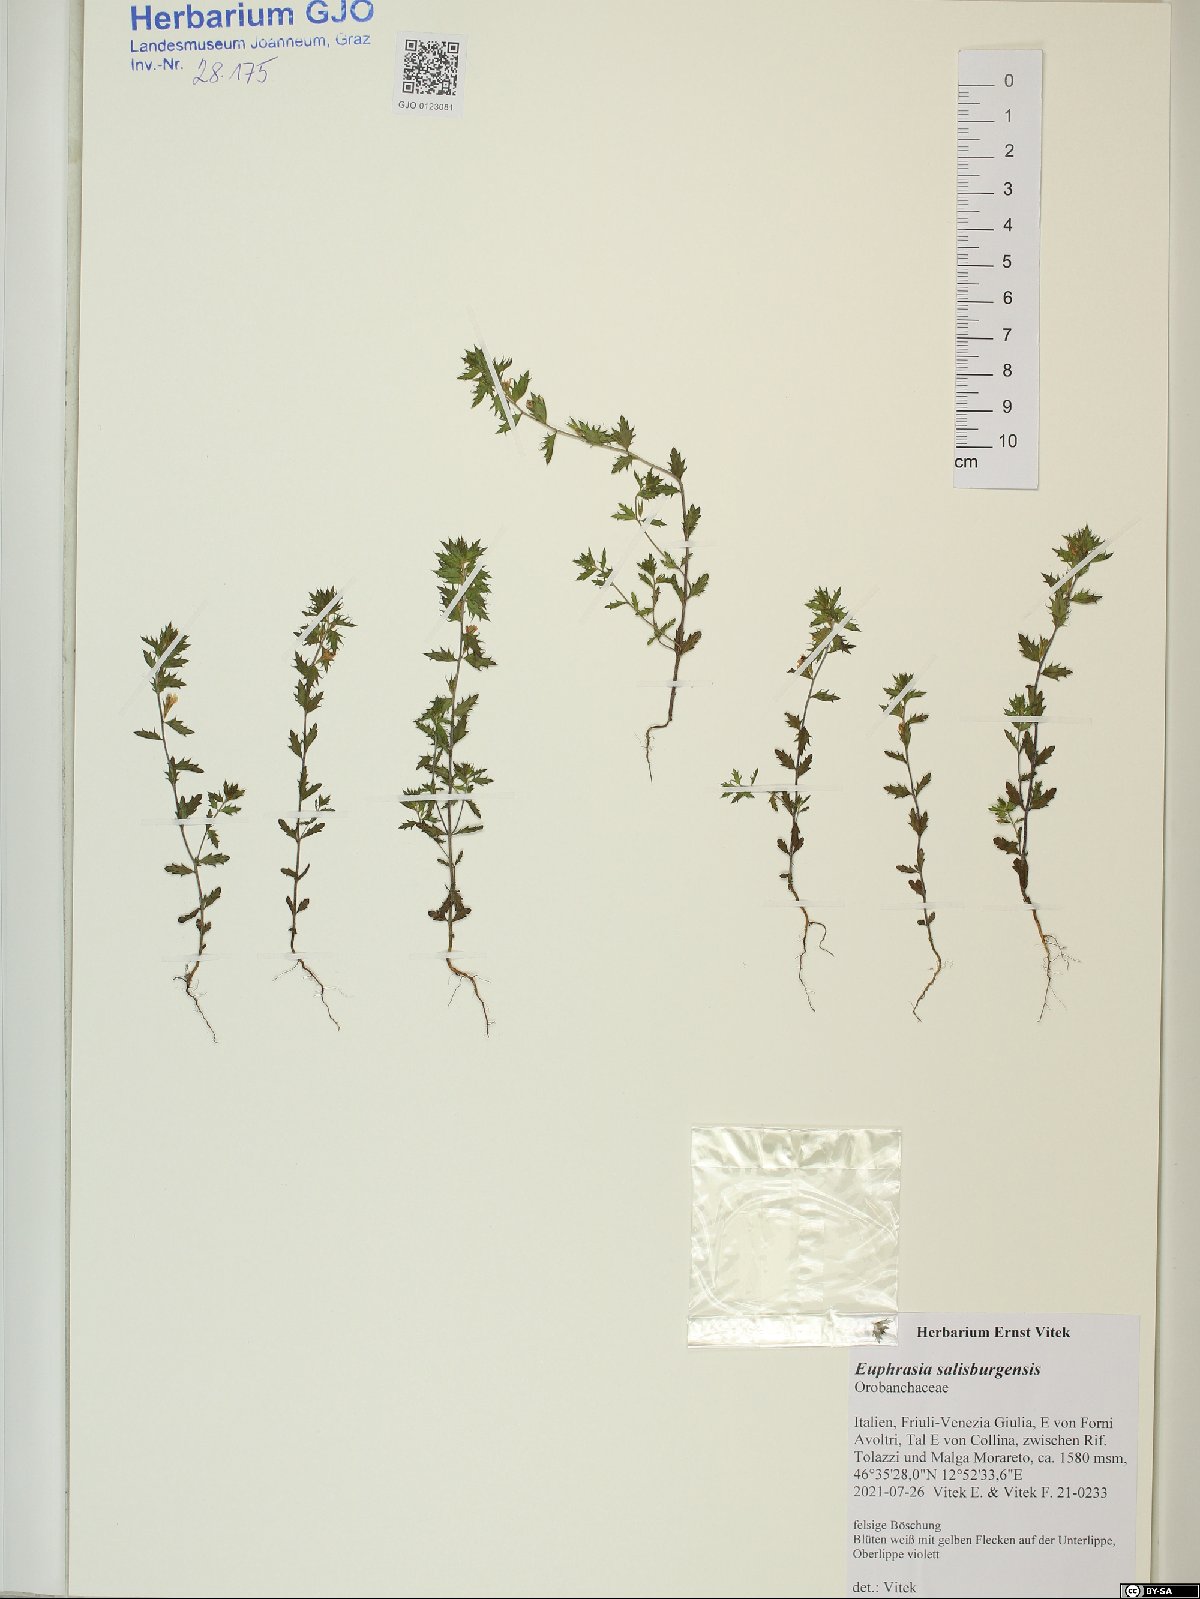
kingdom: Plantae
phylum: Tracheophyta
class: Magnoliopsida
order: Lamiales
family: Orobanchaceae
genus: Euphrasia
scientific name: Euphrasia salisburgensis
